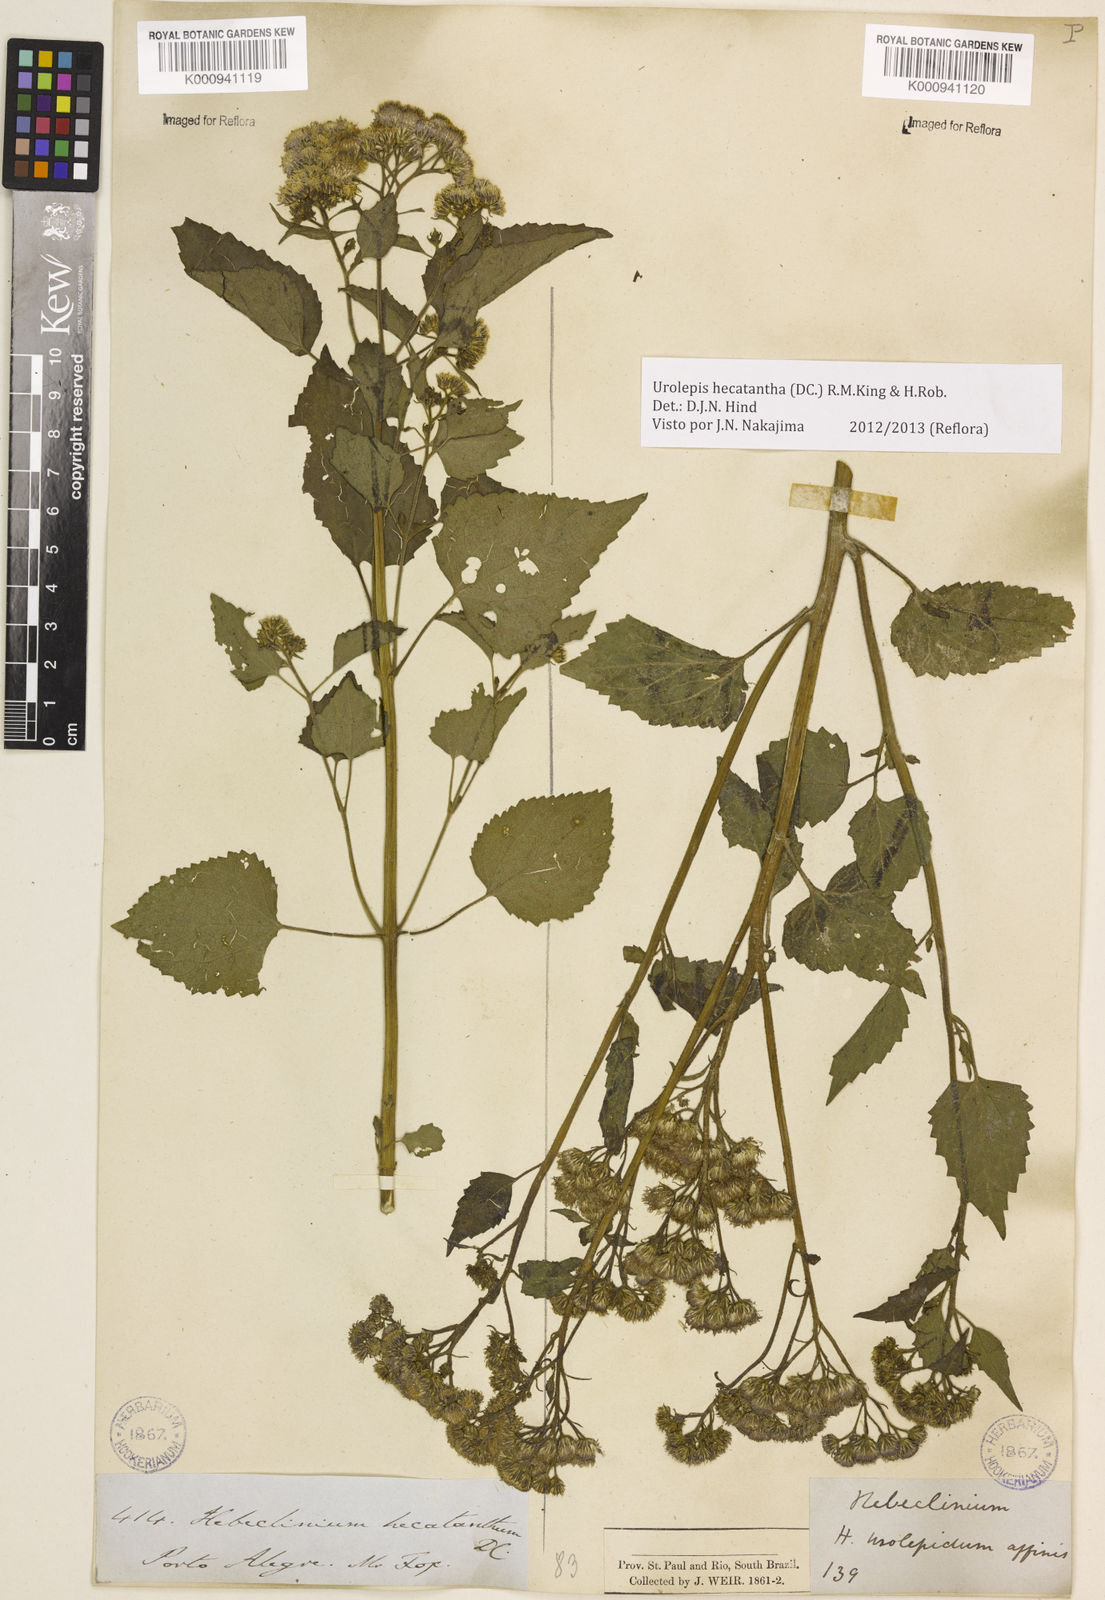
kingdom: Plantae
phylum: Tracheophyta
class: Magnoliopsida
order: Asterales
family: Asteraceae
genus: Urolepis
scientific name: Urolepis hecatantha
